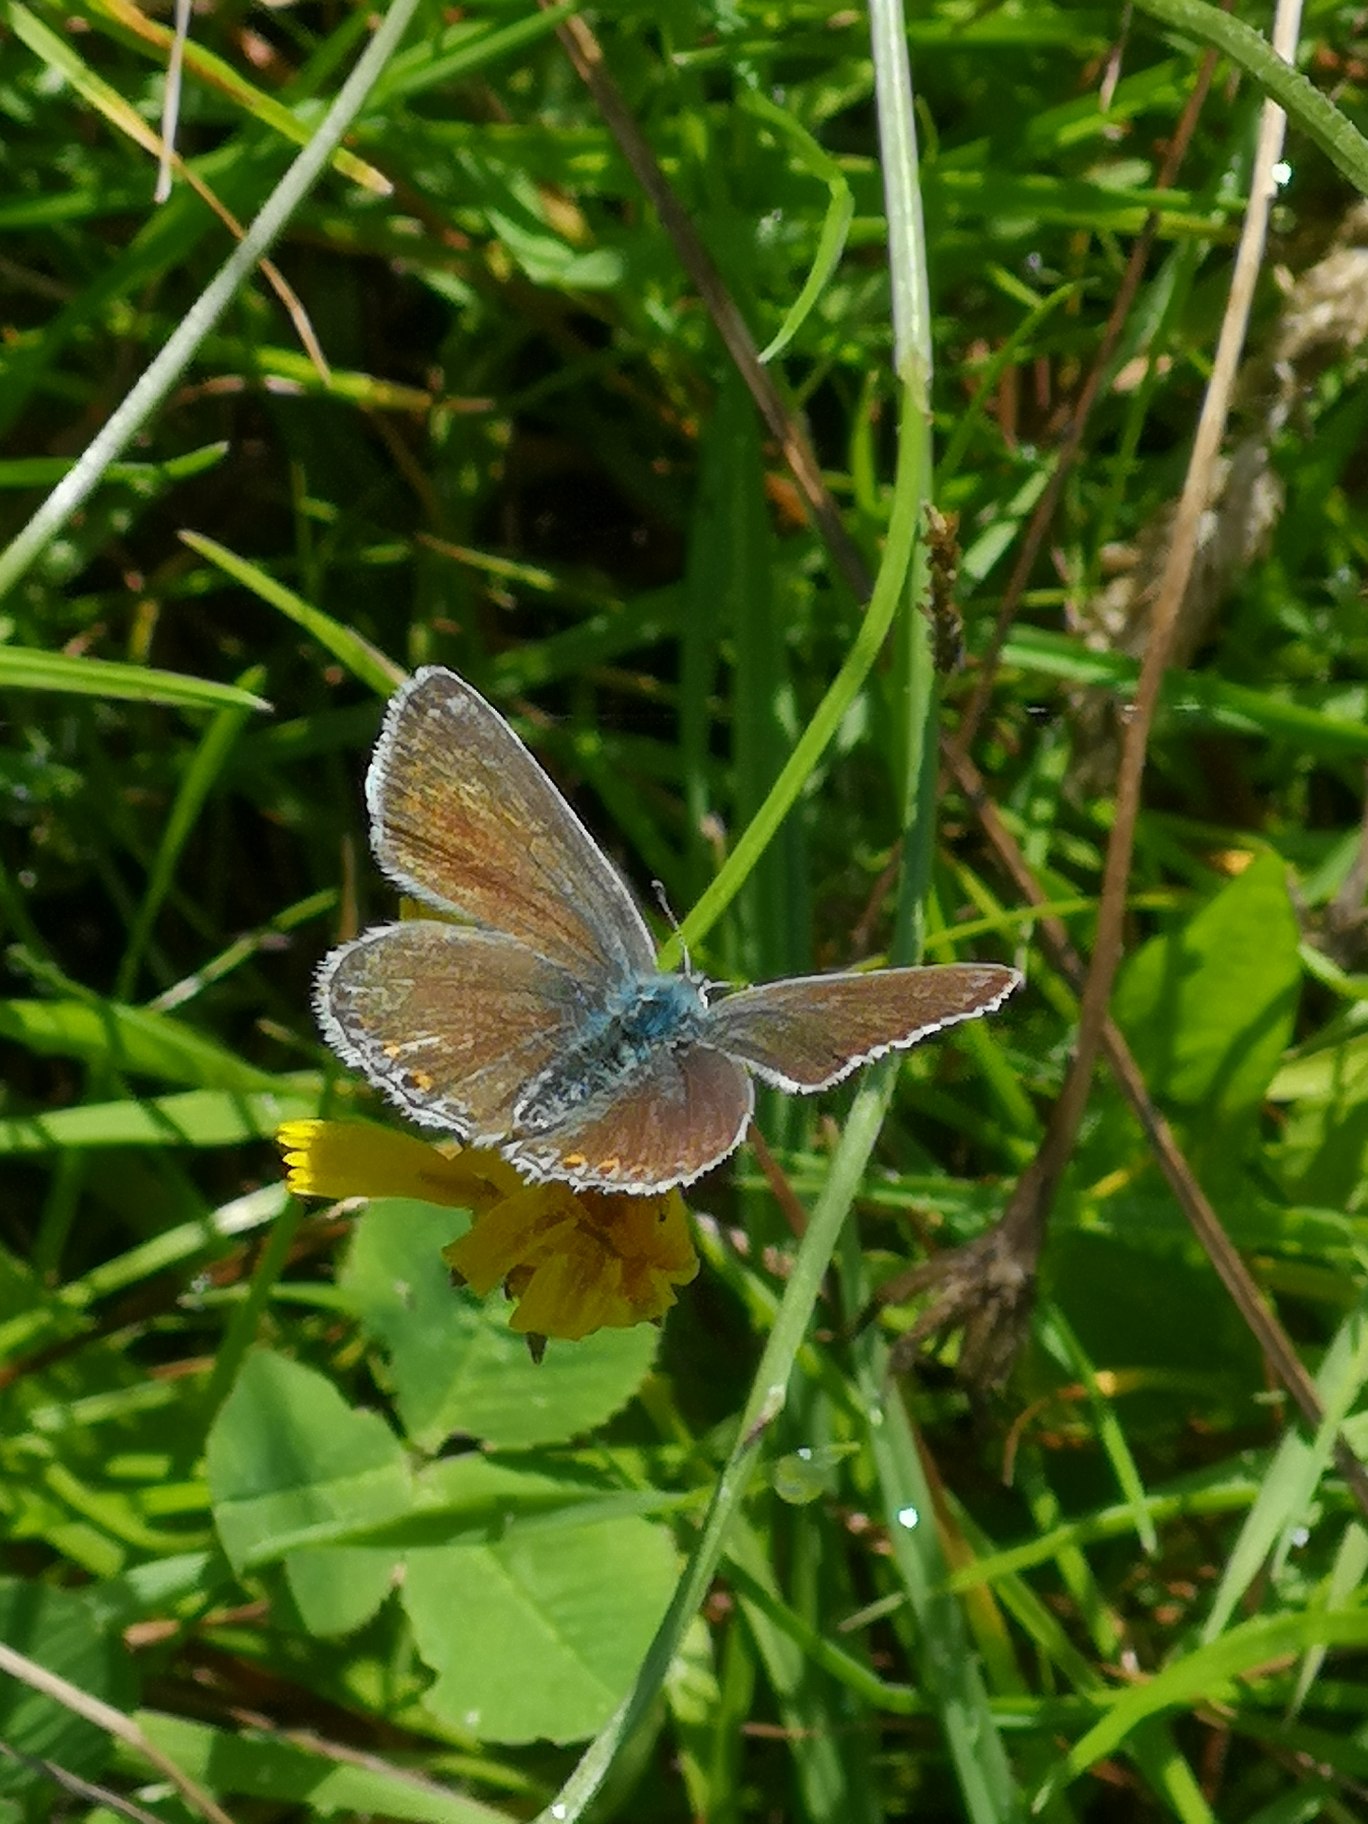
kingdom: Animalia
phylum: Arthropoda
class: Insecta
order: Lepidoptera
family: Lycaenidae
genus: Polyommatus
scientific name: Polyommatus icarus
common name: Almindelig blåfugl
